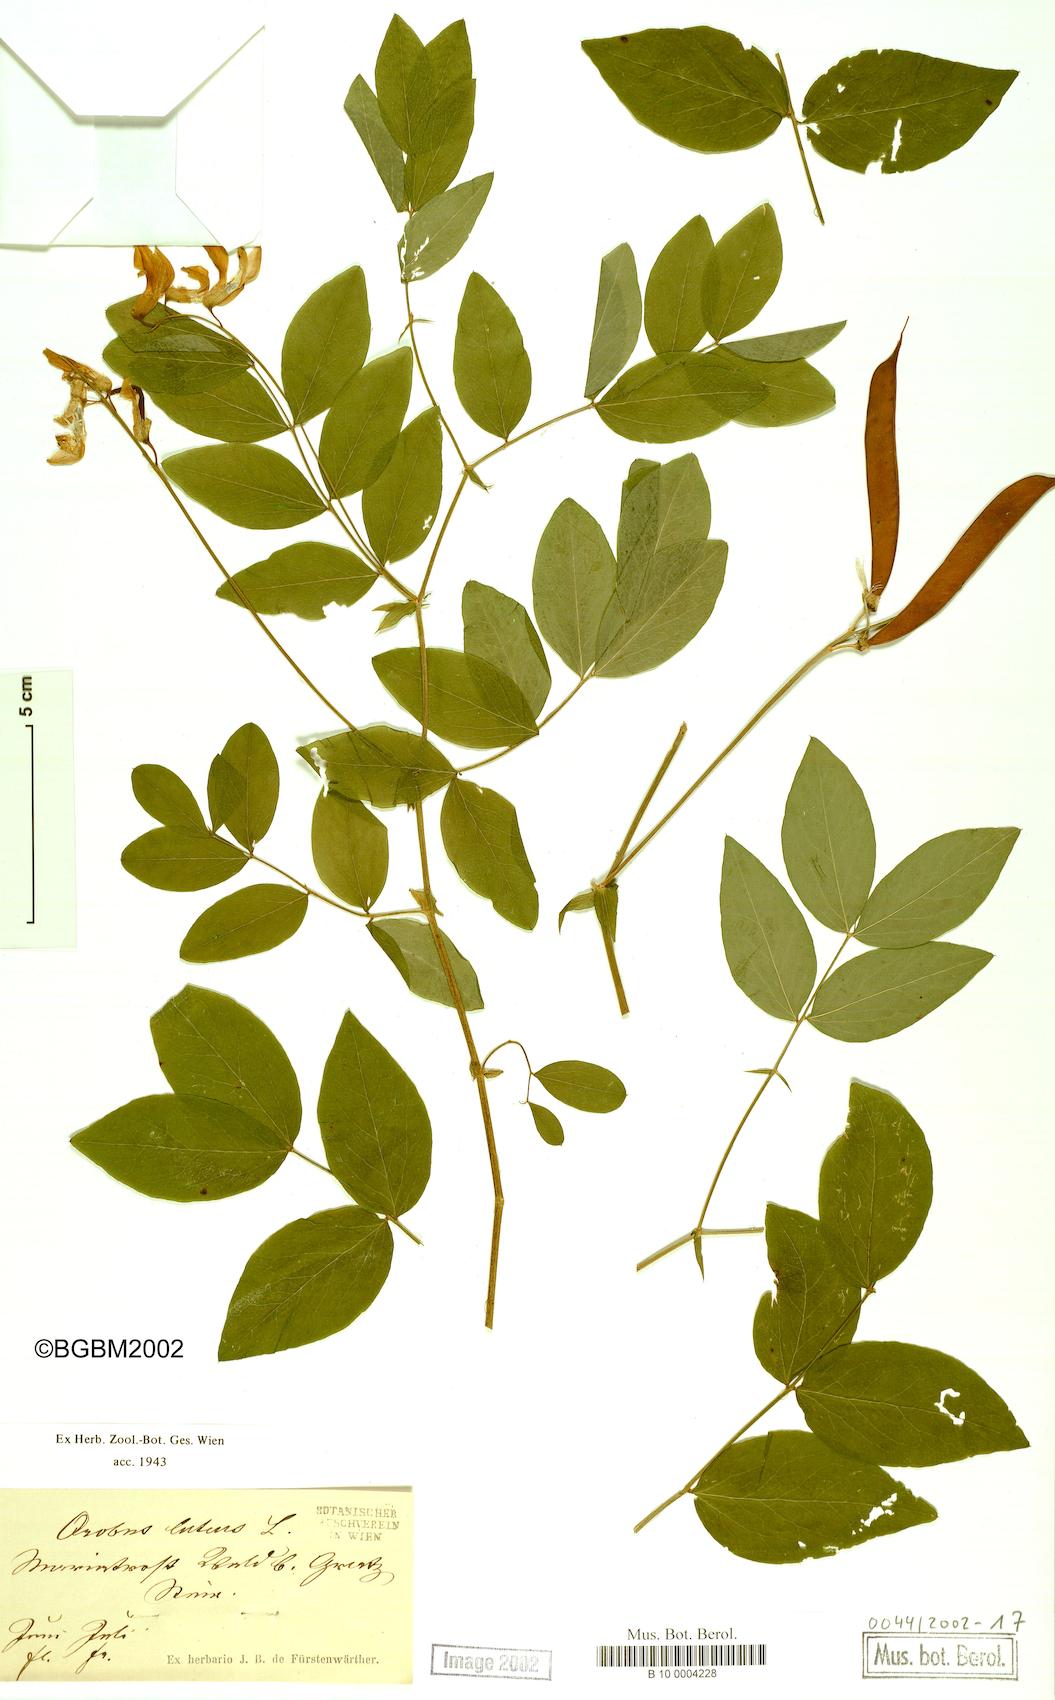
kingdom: Plantae
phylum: Tracheophyta
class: Magnoliopsida
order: Fabales
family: Fabaceae
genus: Lathyrus
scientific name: Lathyrus gmelinii
